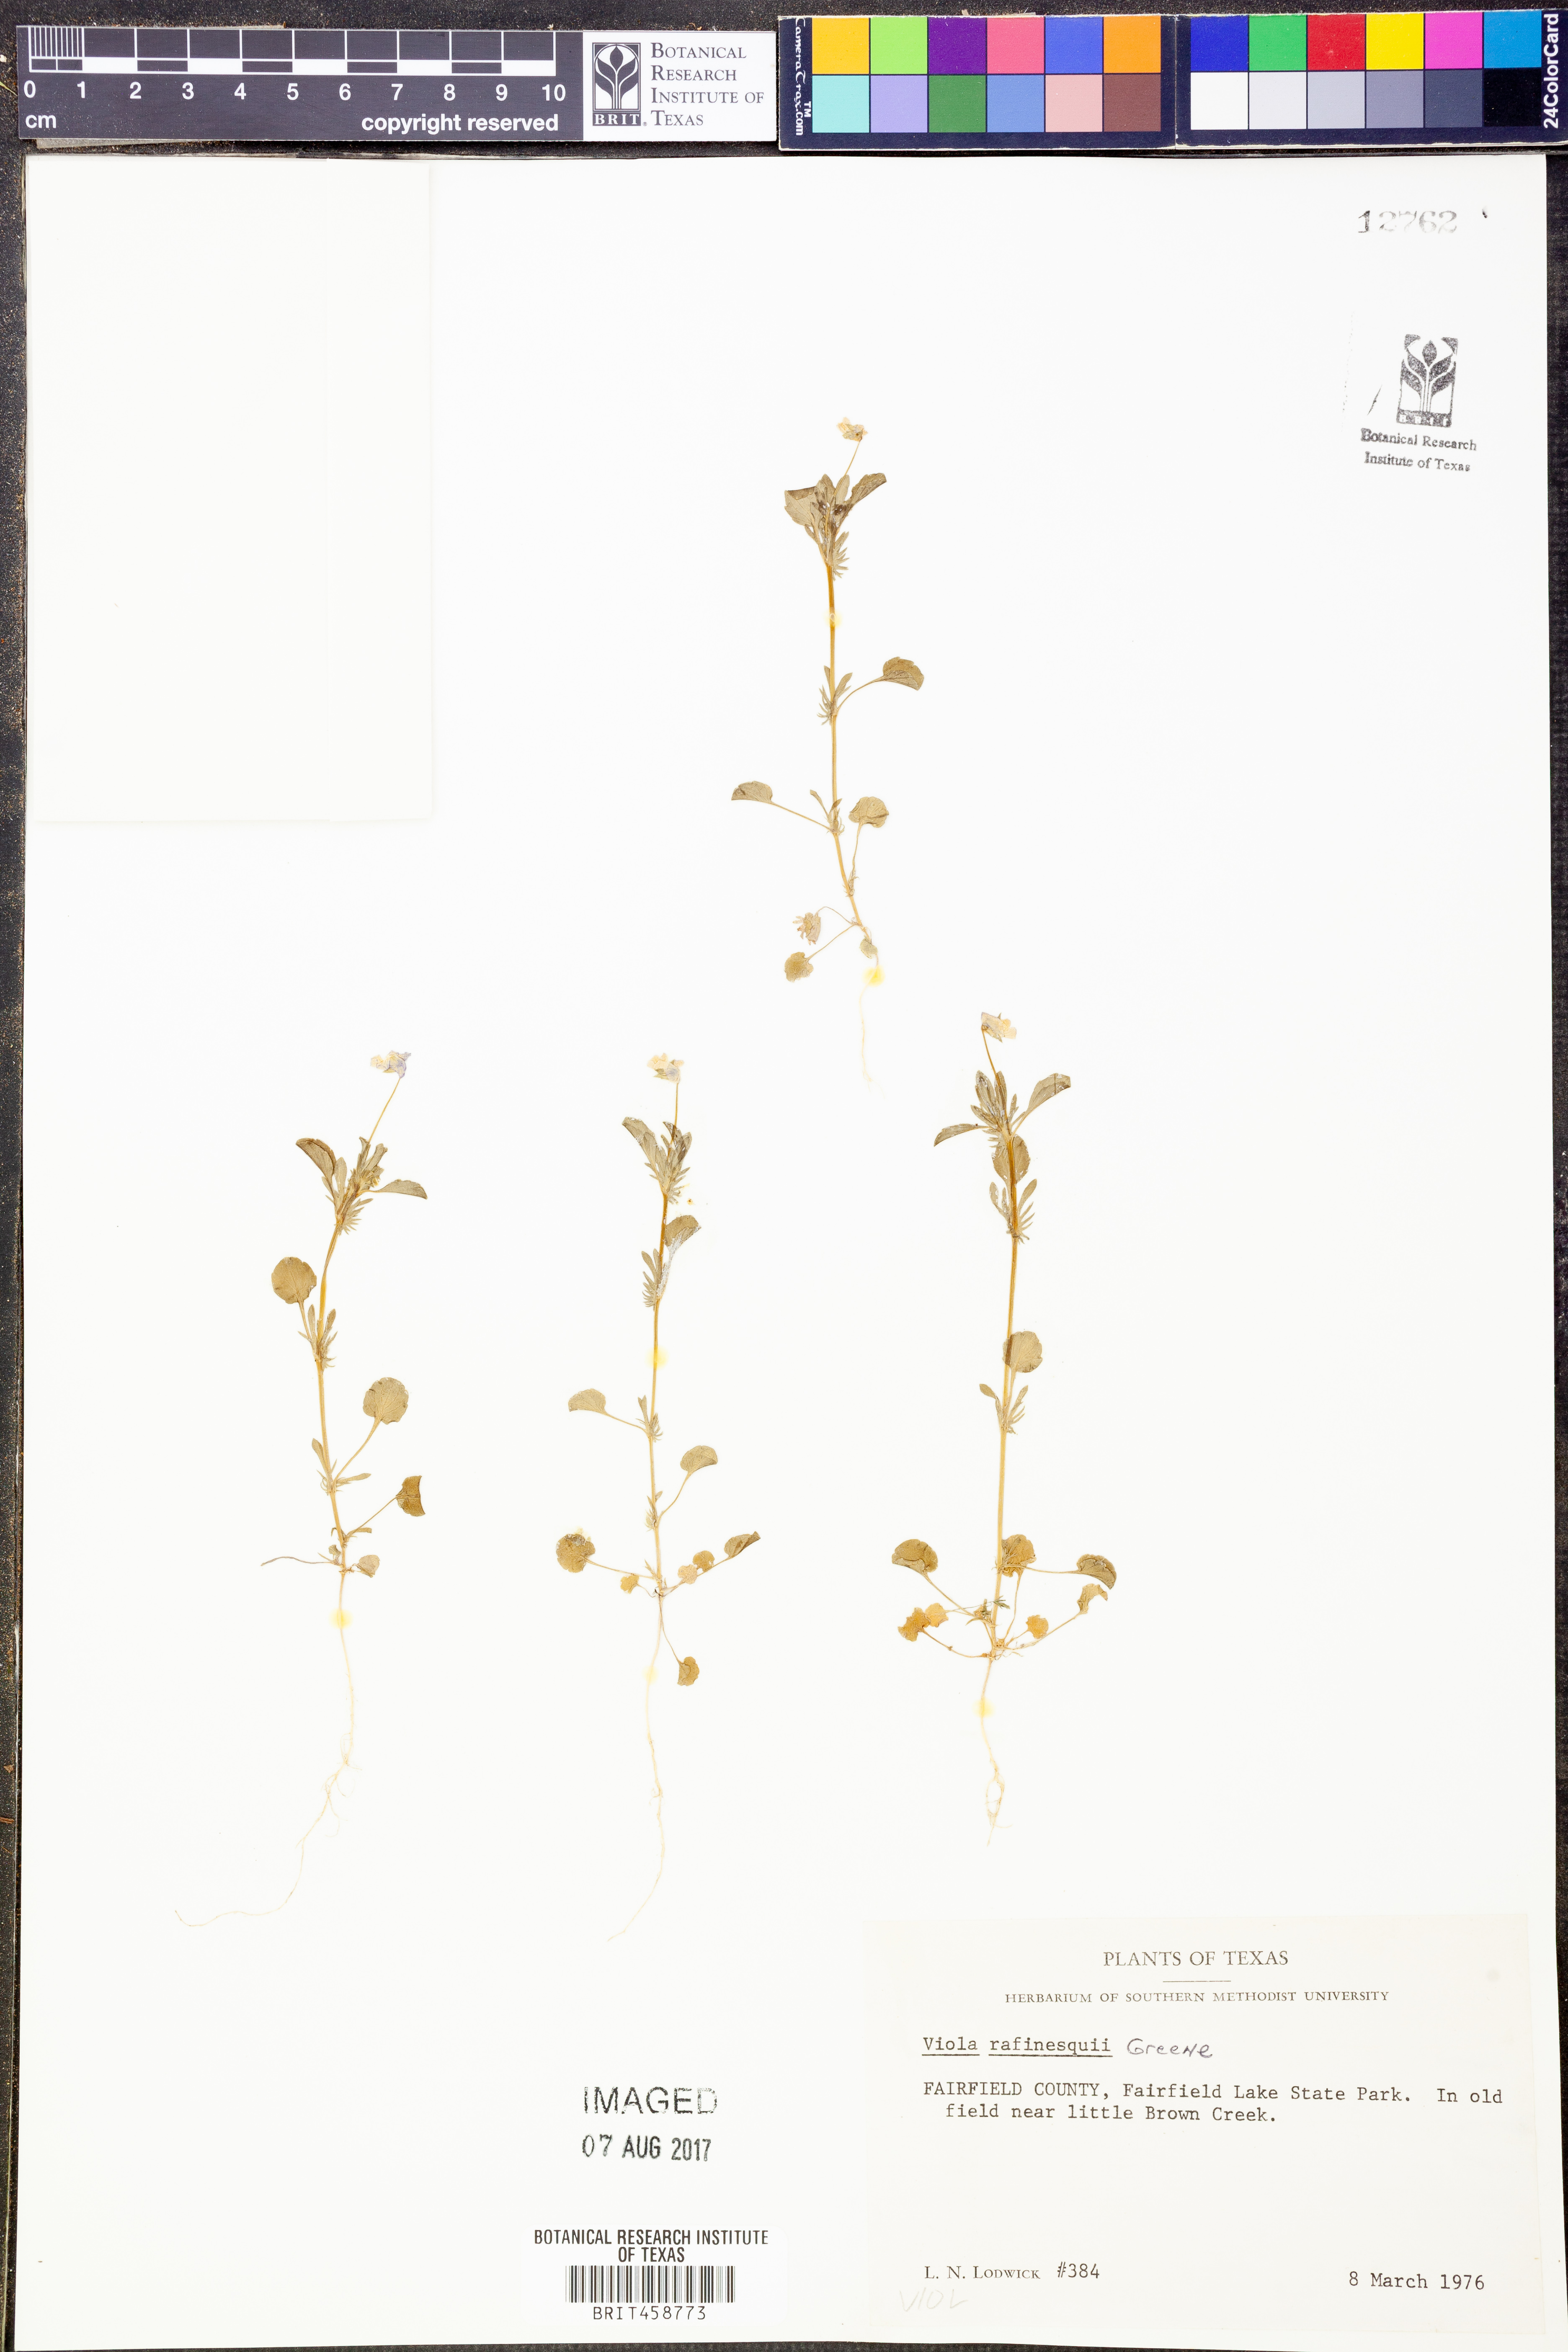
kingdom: Plantae
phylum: Tracheophyta
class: Magnoliopsida
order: Malpighiales
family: Violaceae
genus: Viola
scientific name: Viola rafinesquei
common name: American field pansy
